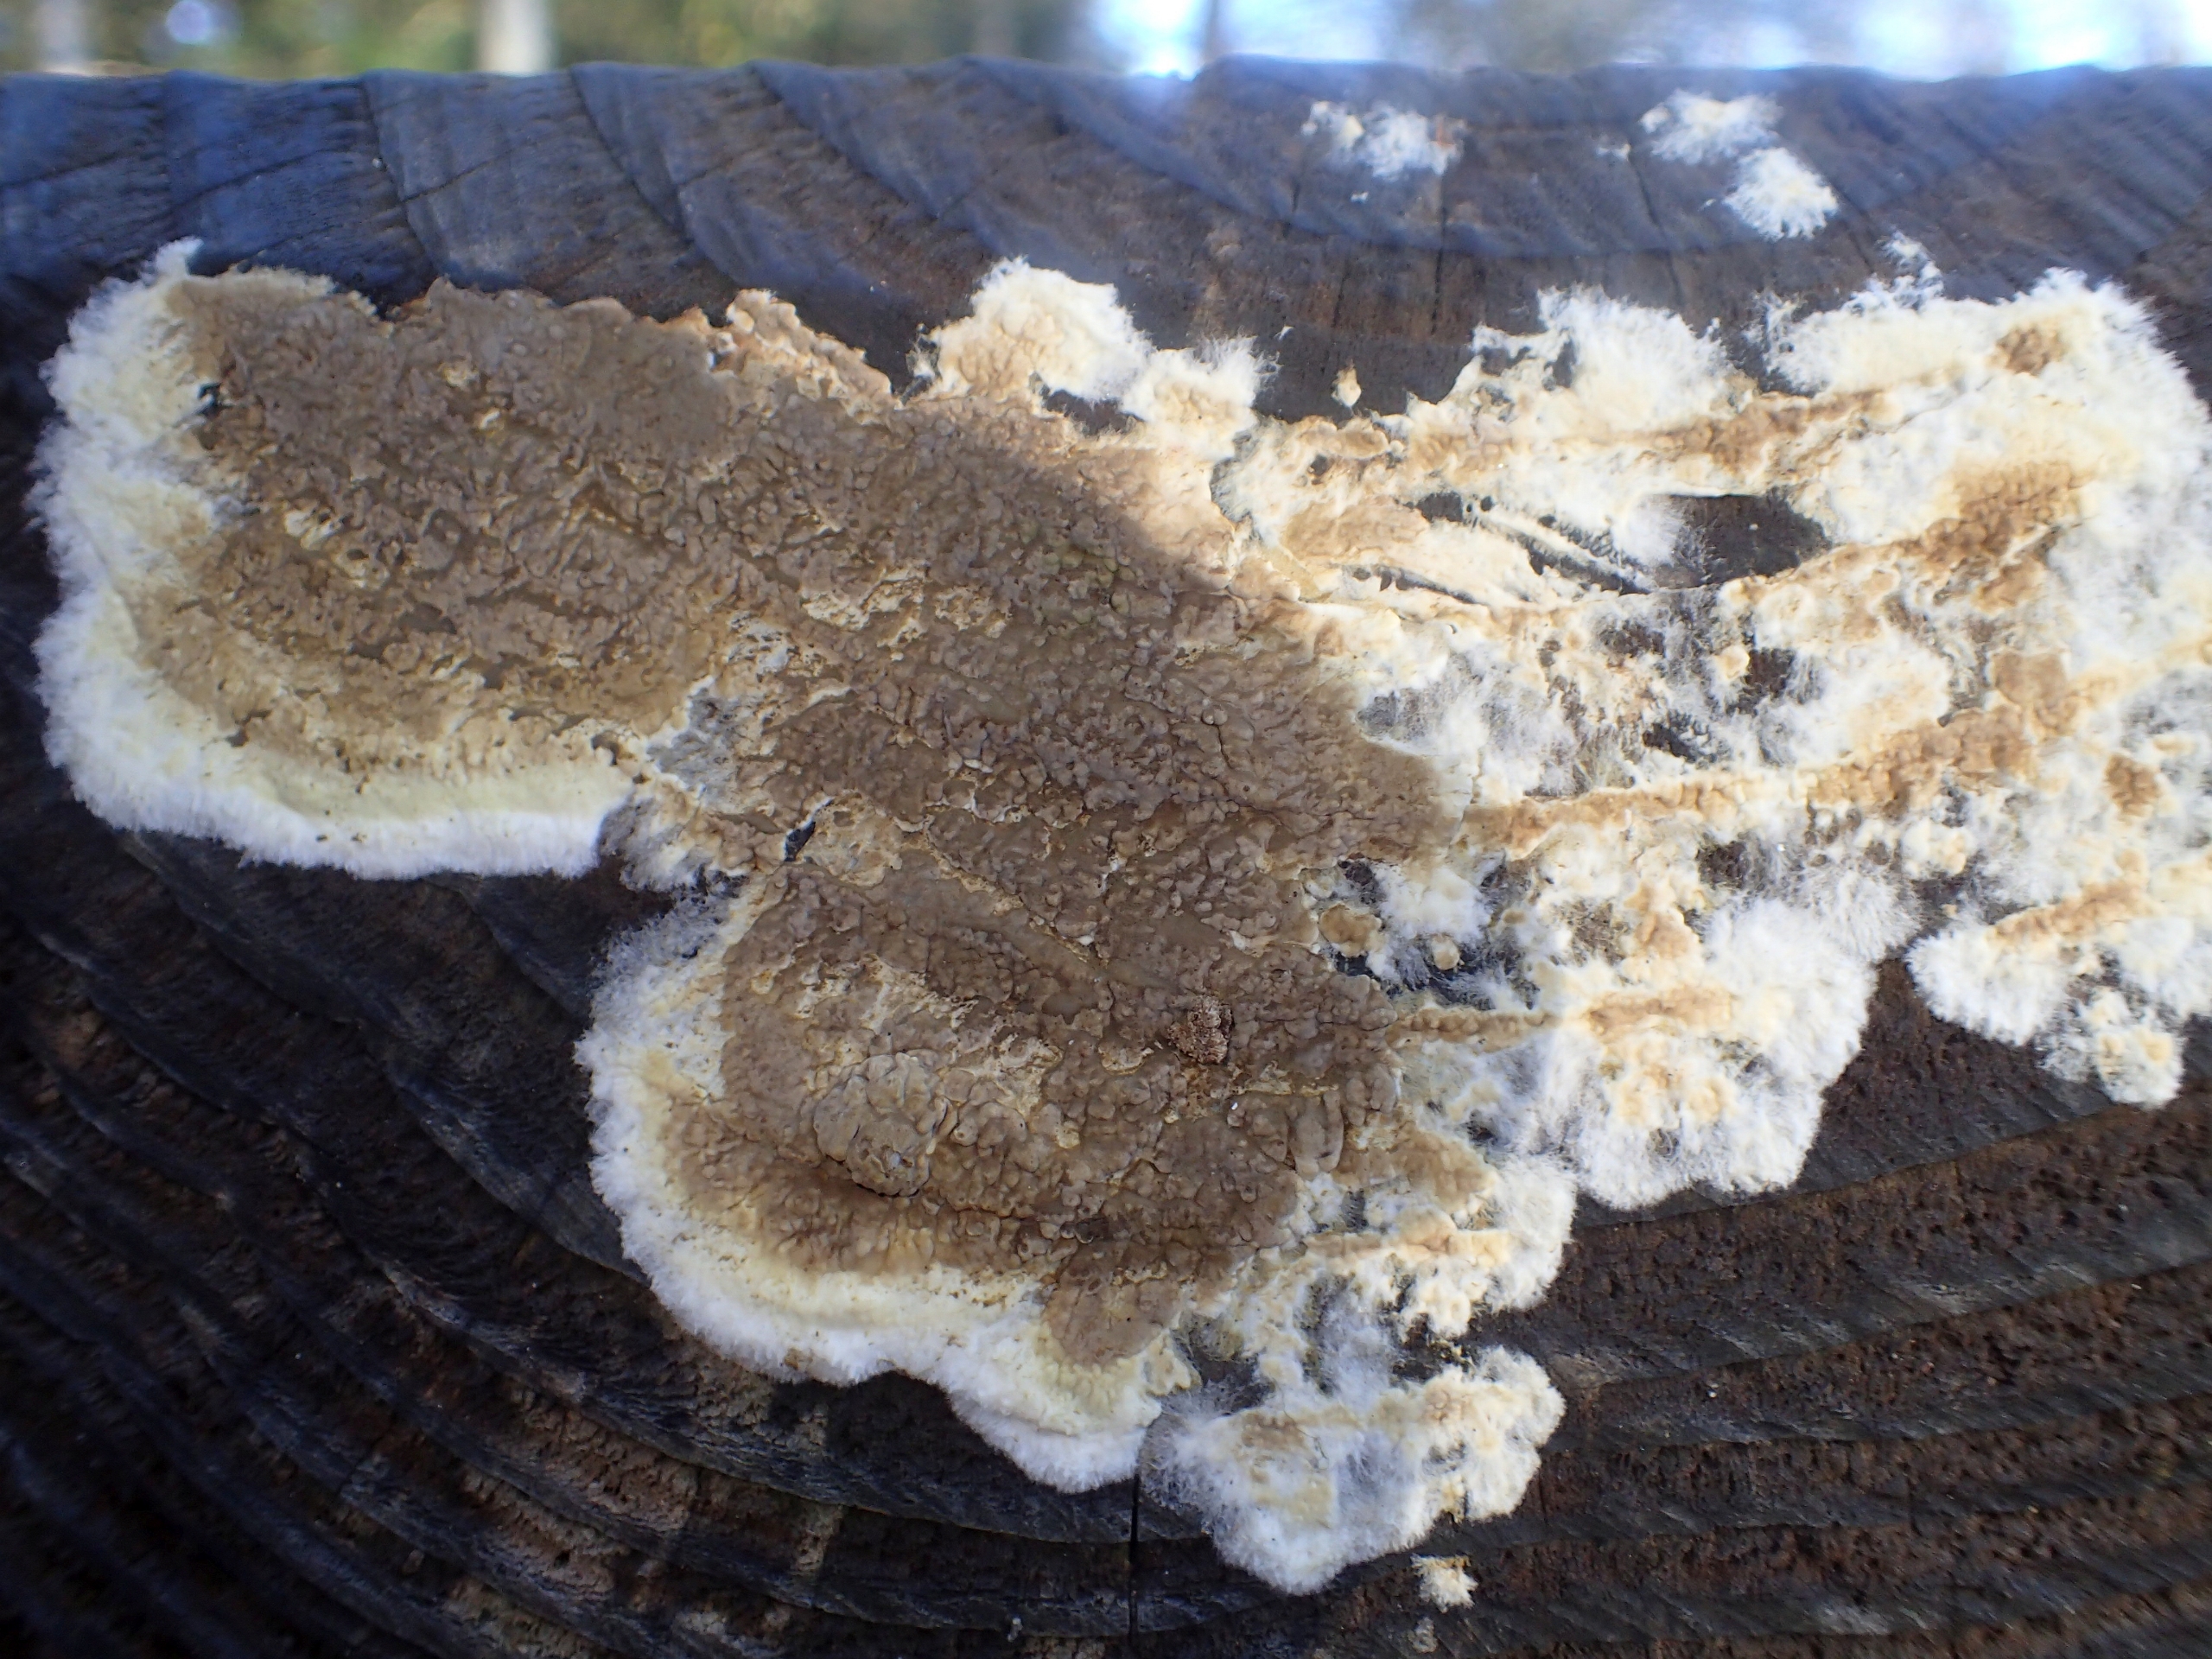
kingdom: Fungi
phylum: Basidiomycota
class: Agaricomycetes
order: Boletales
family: Coniophoraceae
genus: Coniophora
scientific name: Coniophora puteana
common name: Gul tømmersvamp
